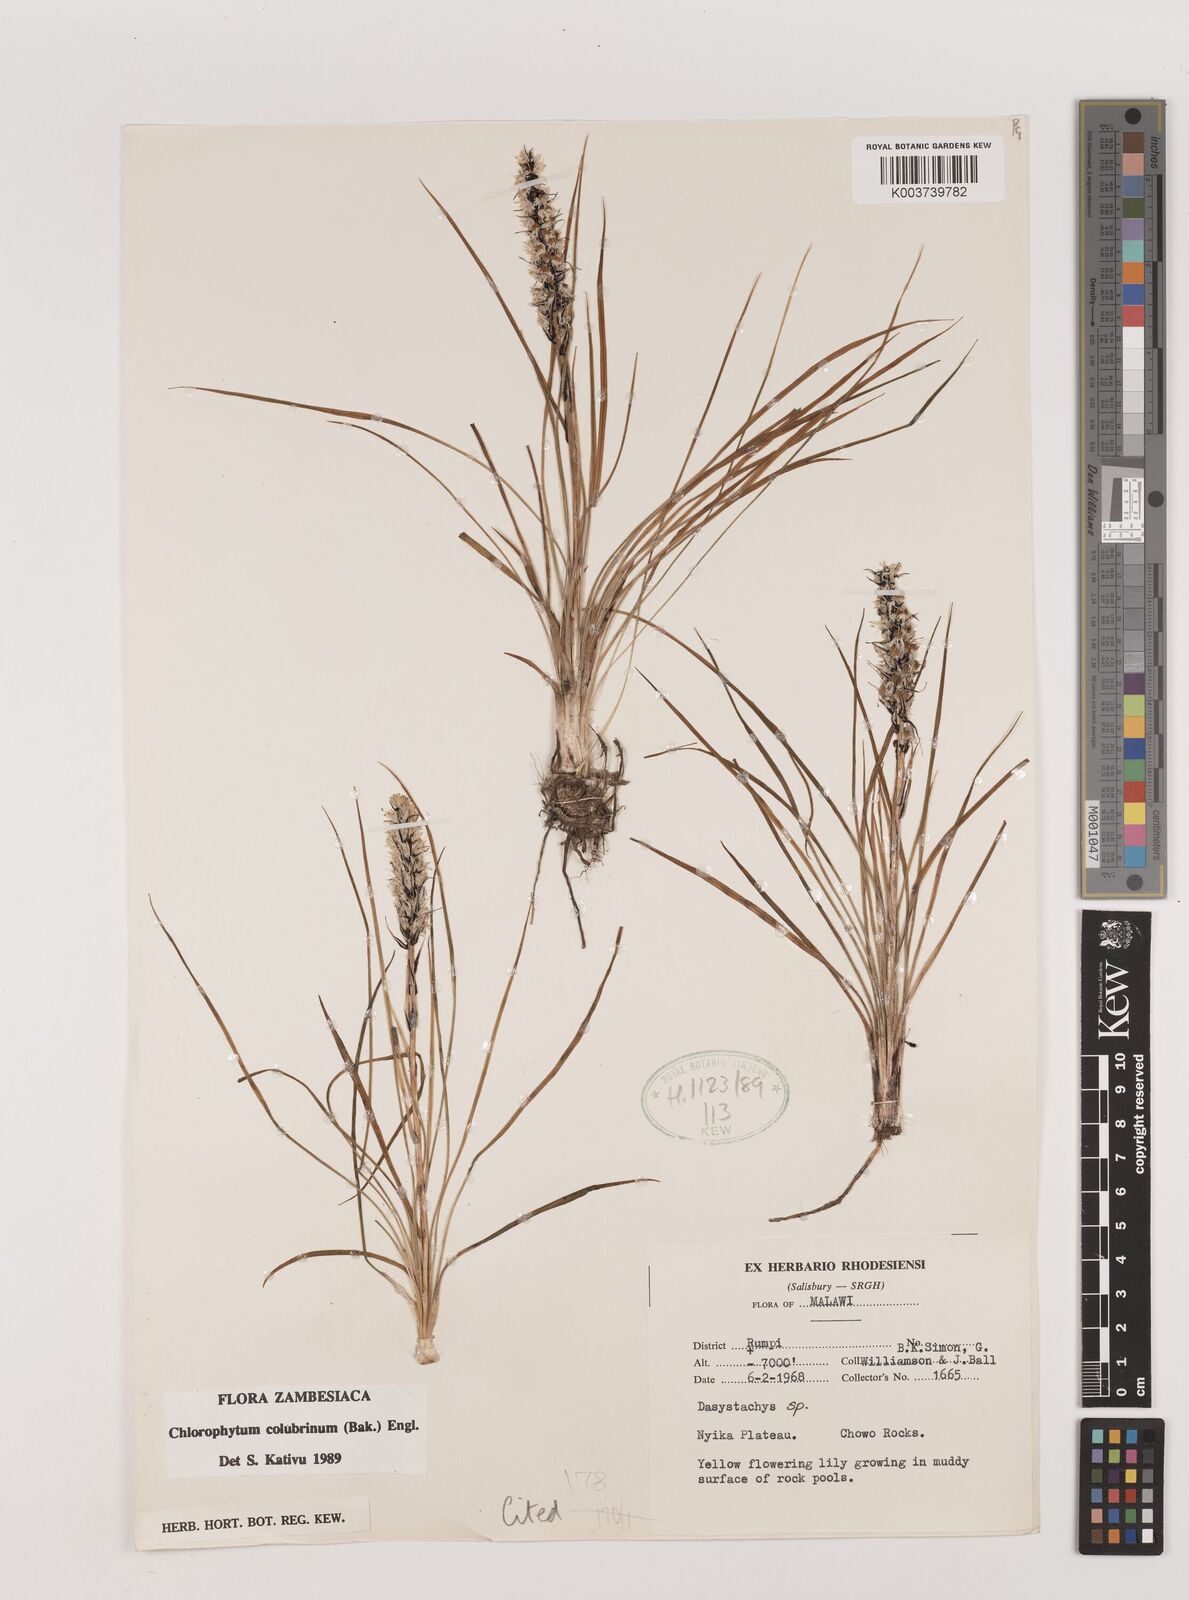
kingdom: Plantae
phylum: Tracheophyta
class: Liliopsida
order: Asparagales
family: Asparagaceae
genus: Chlorophytum
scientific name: Chlorophytum colubrinum
